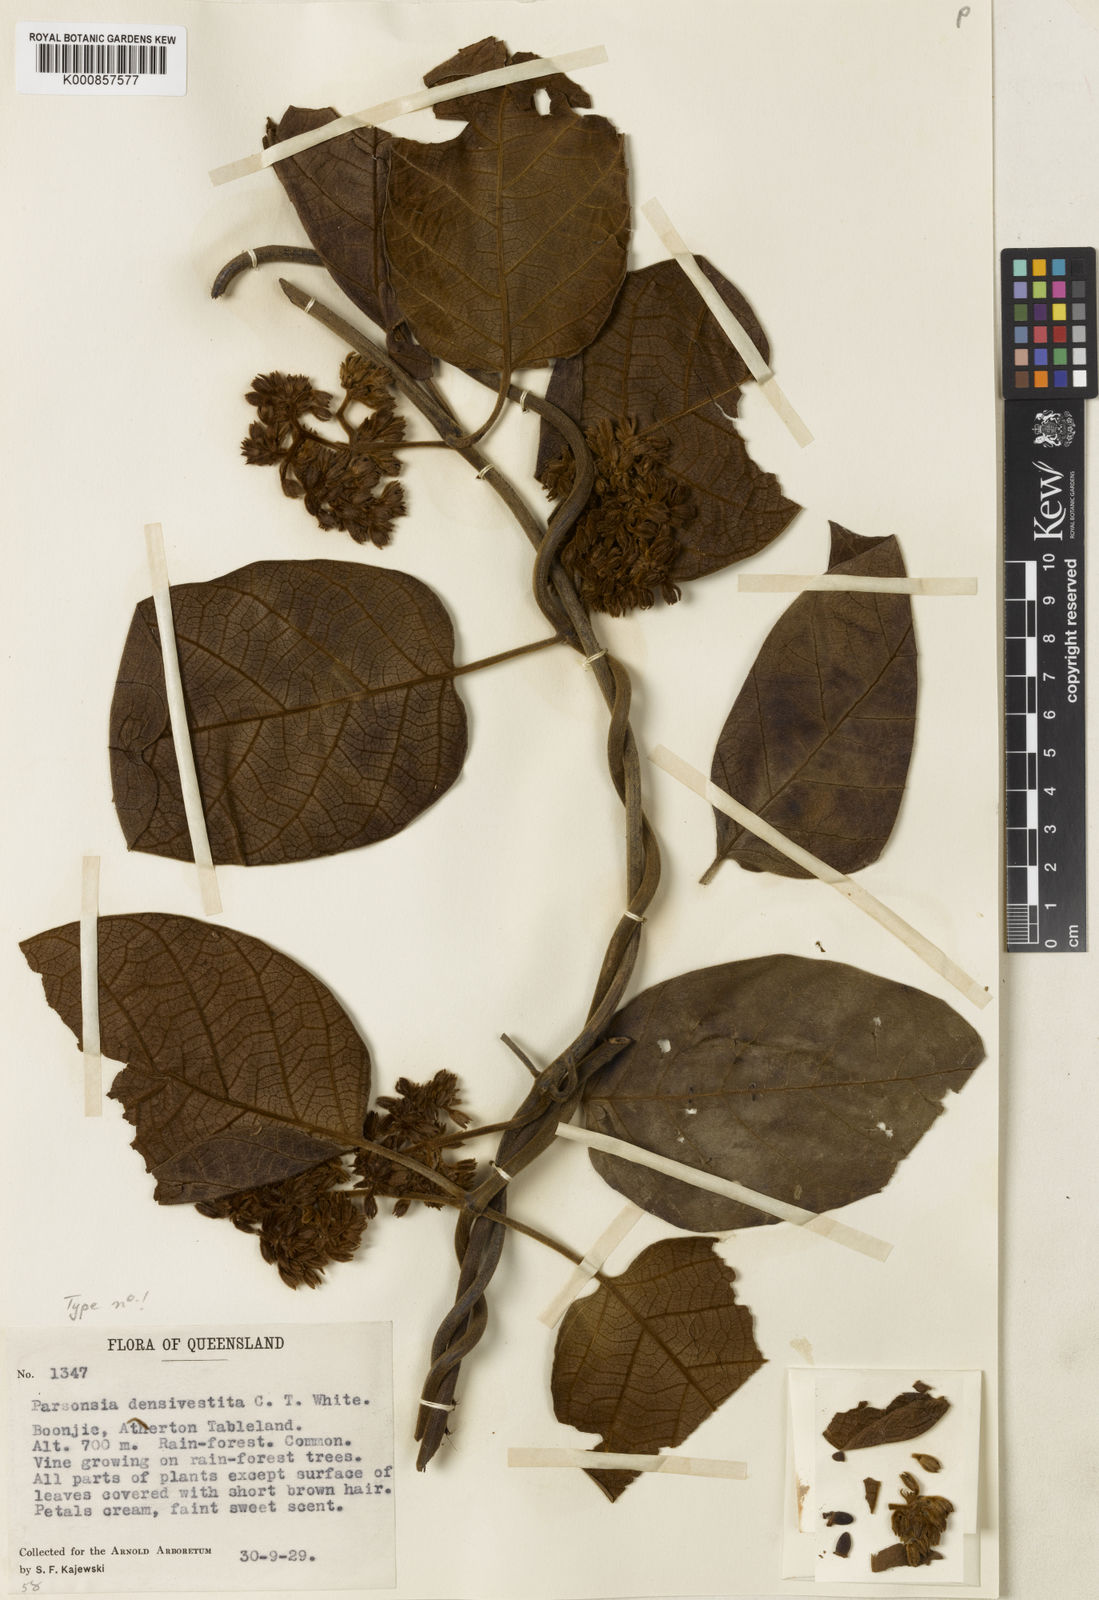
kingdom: Plantae
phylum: Tracheophyta
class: Magnoliopsida
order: Gentianales
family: Apocynaceae
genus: Parsonsia
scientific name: Parsonsia densivestita
